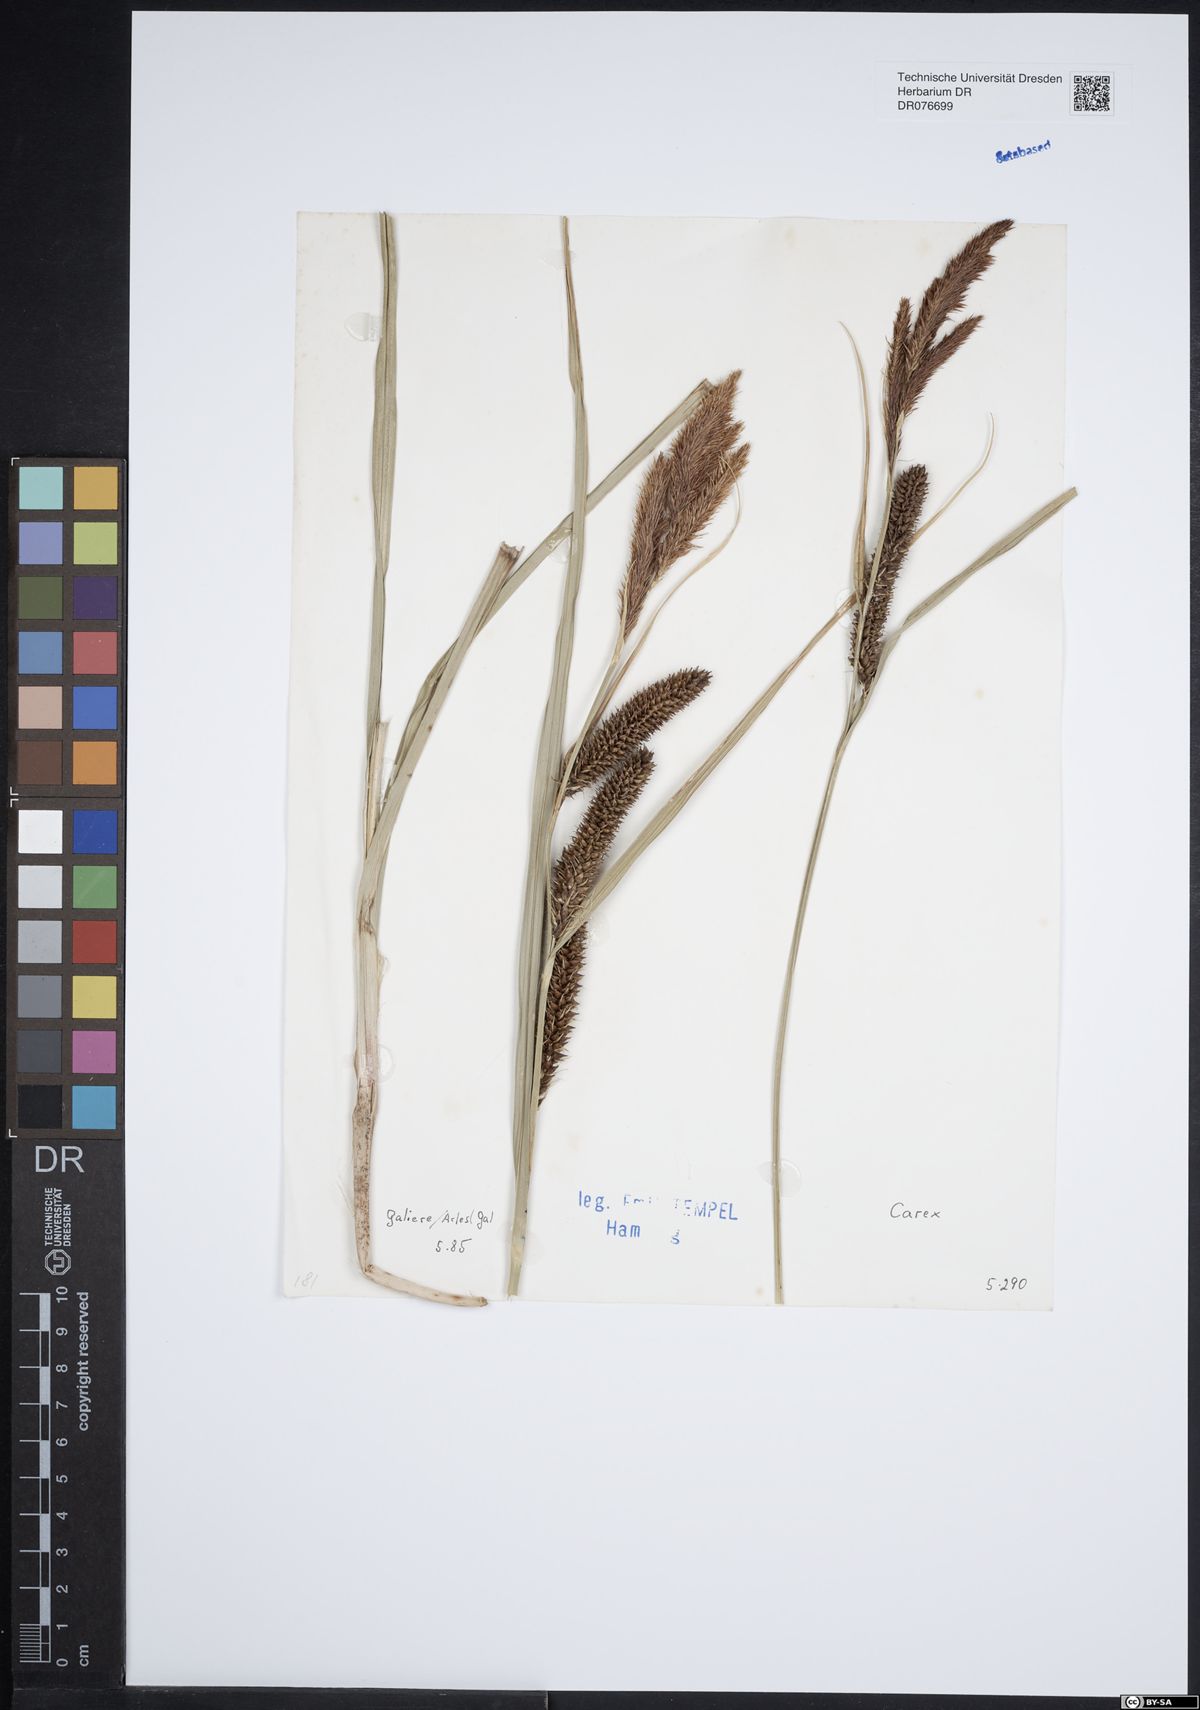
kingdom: Plantae
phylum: Tracheophyta
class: Liliopsida
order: Poales
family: Cyperaceae
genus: Carex
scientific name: Carex
